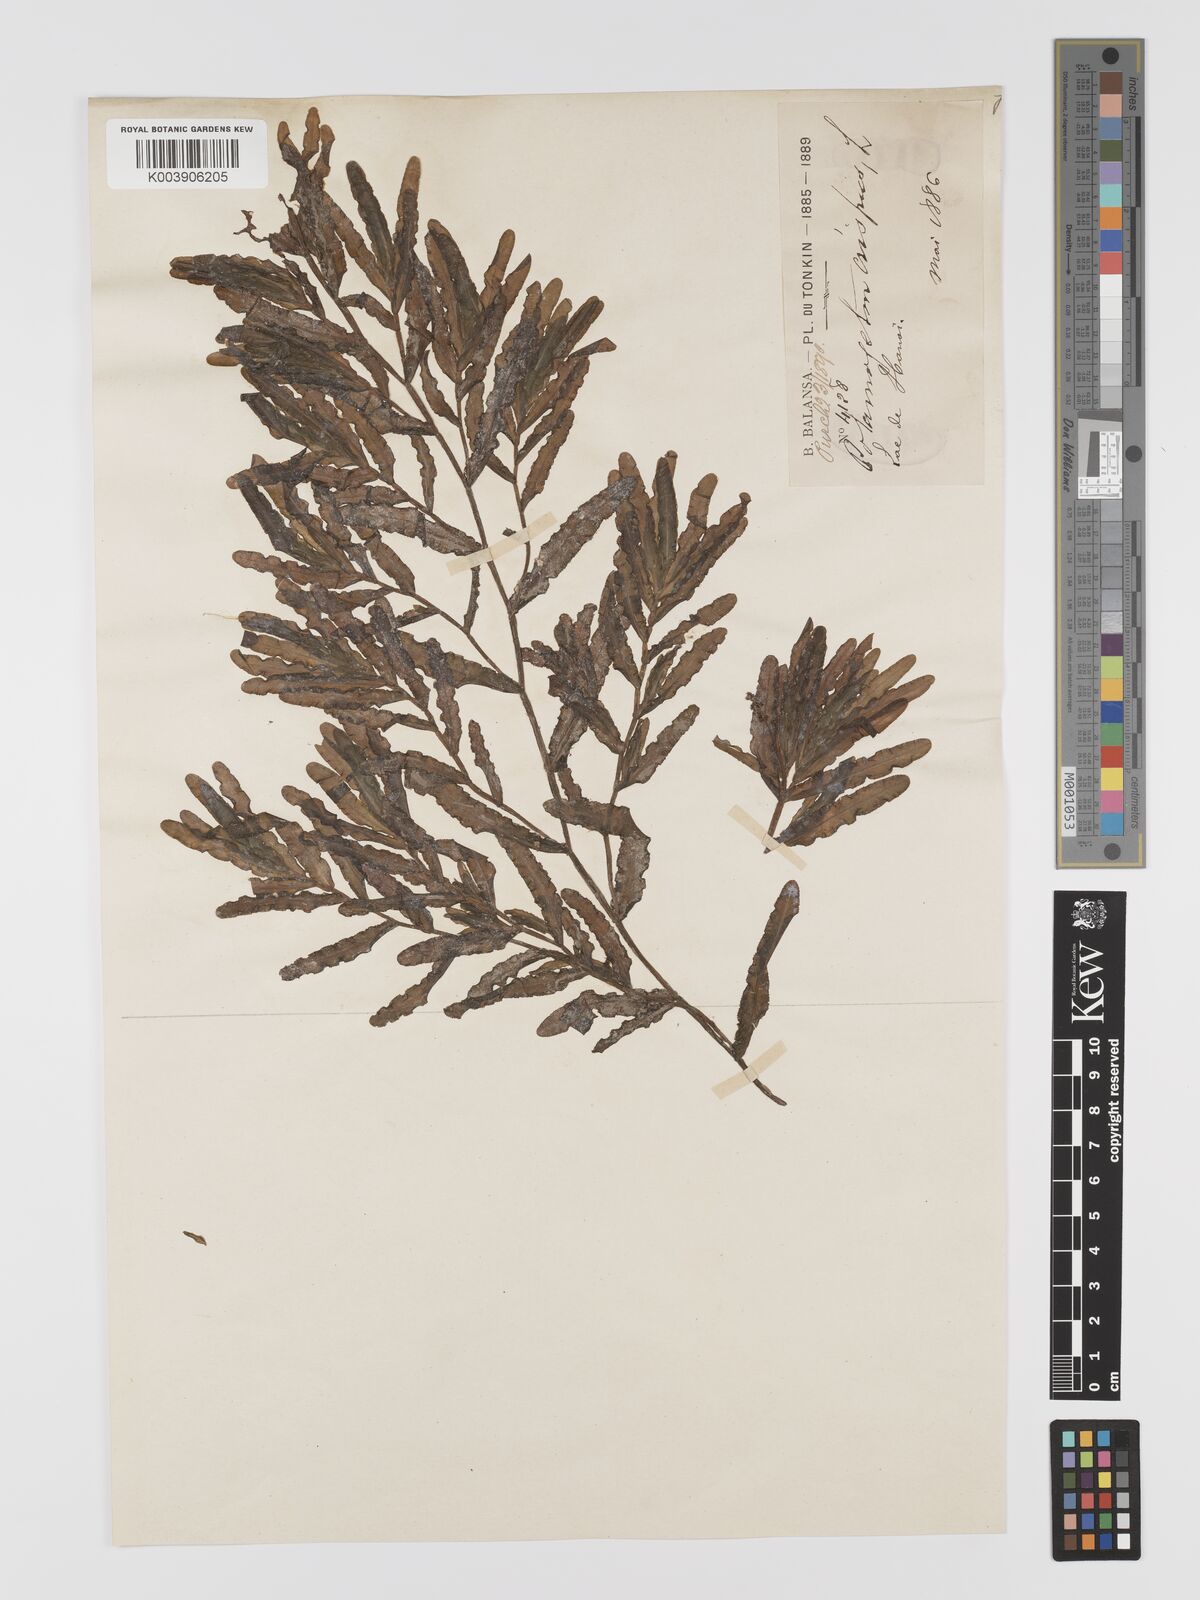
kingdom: Plantae
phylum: Tracheophyta
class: Liliopsida
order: Alismatales
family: Potamogetonaceae
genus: Potamogeton
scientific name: Potamogeton crispus
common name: Curled pondweed
